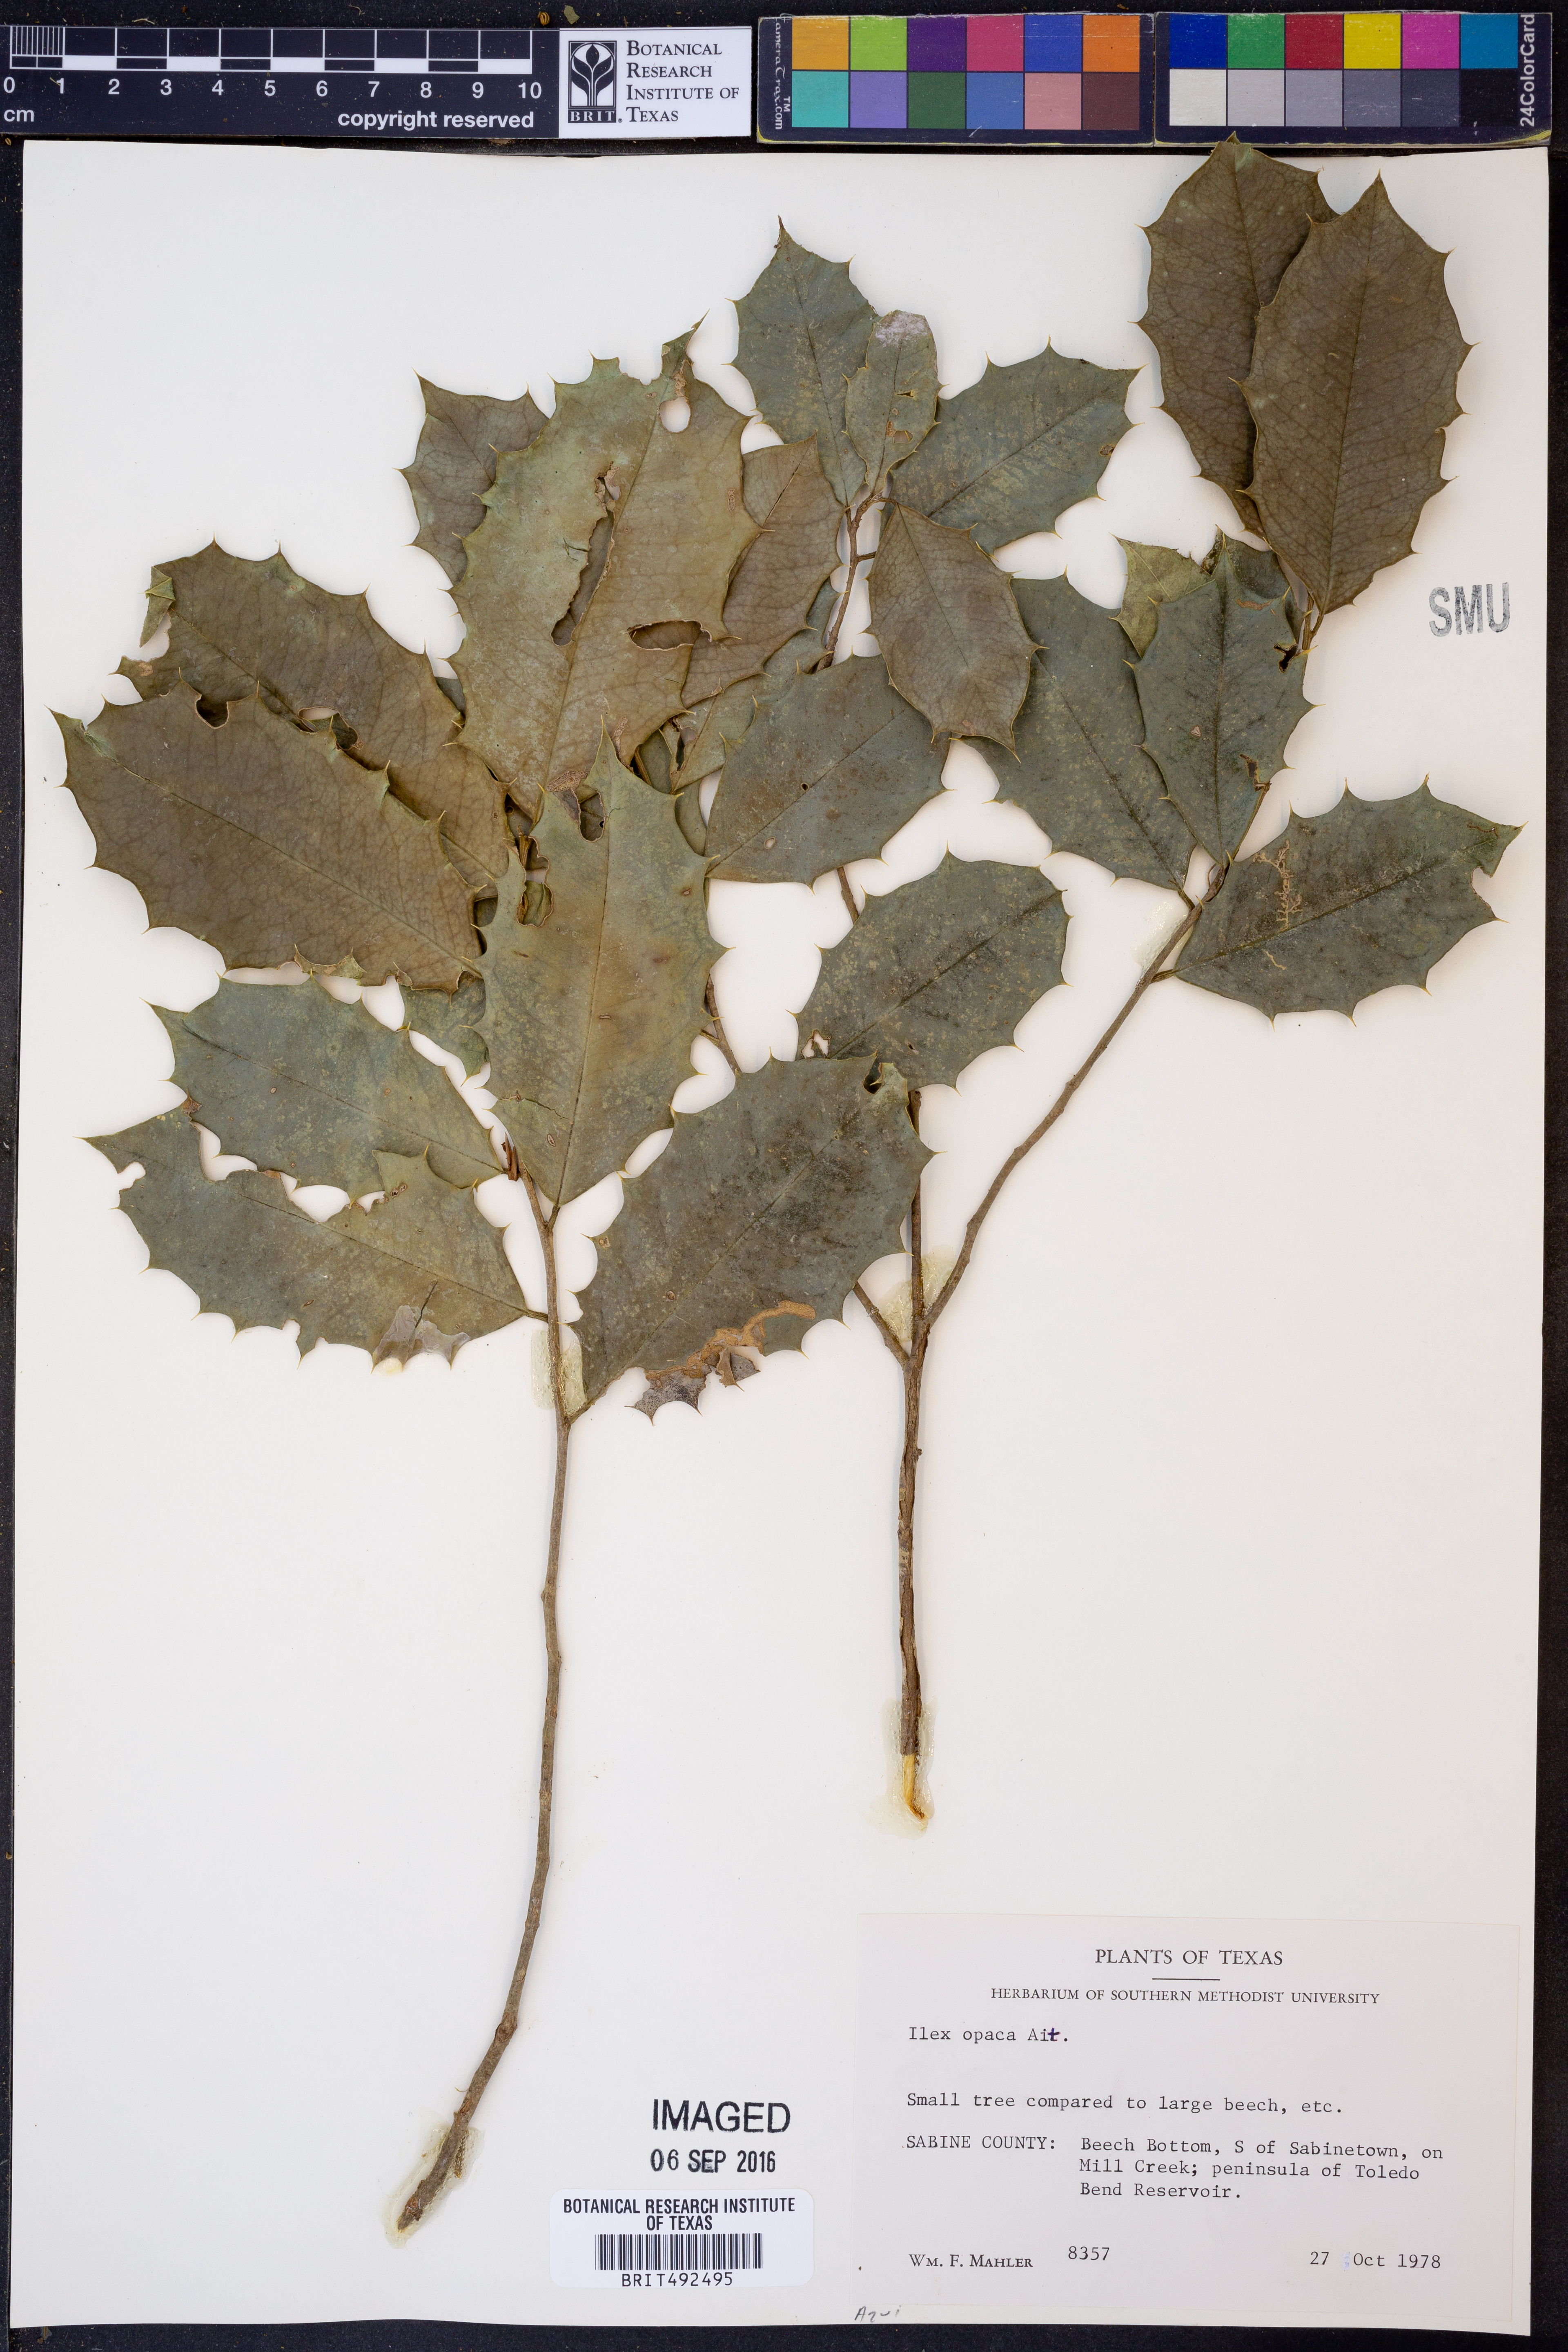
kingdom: Plantae
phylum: Tracheophyta
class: Magnoliopsida
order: Aquifoliales
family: Aquifoliaceae
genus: Ilex
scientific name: Ilex opaca
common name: American holly
